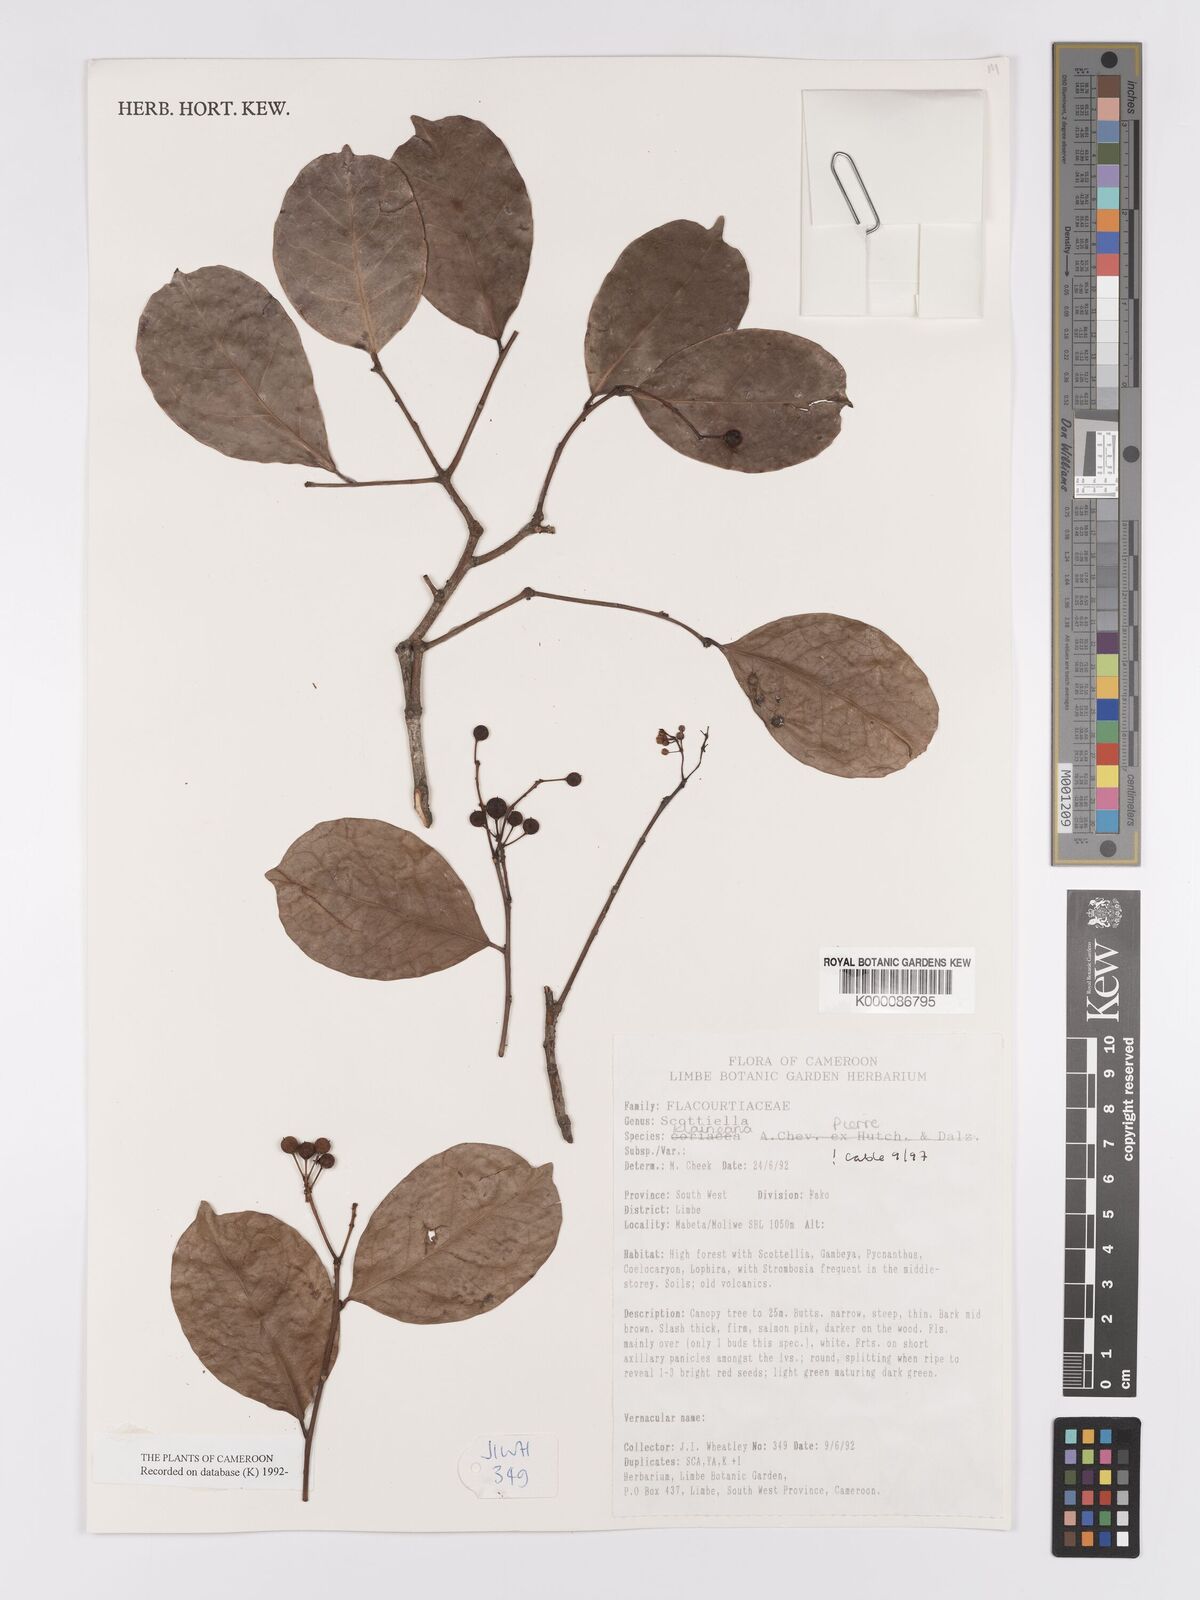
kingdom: Plantae
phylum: Tracheophyta
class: Magnoliopsida
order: Malpighiales
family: Achariaceae
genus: Scottellia
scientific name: Scottellia klaineana
